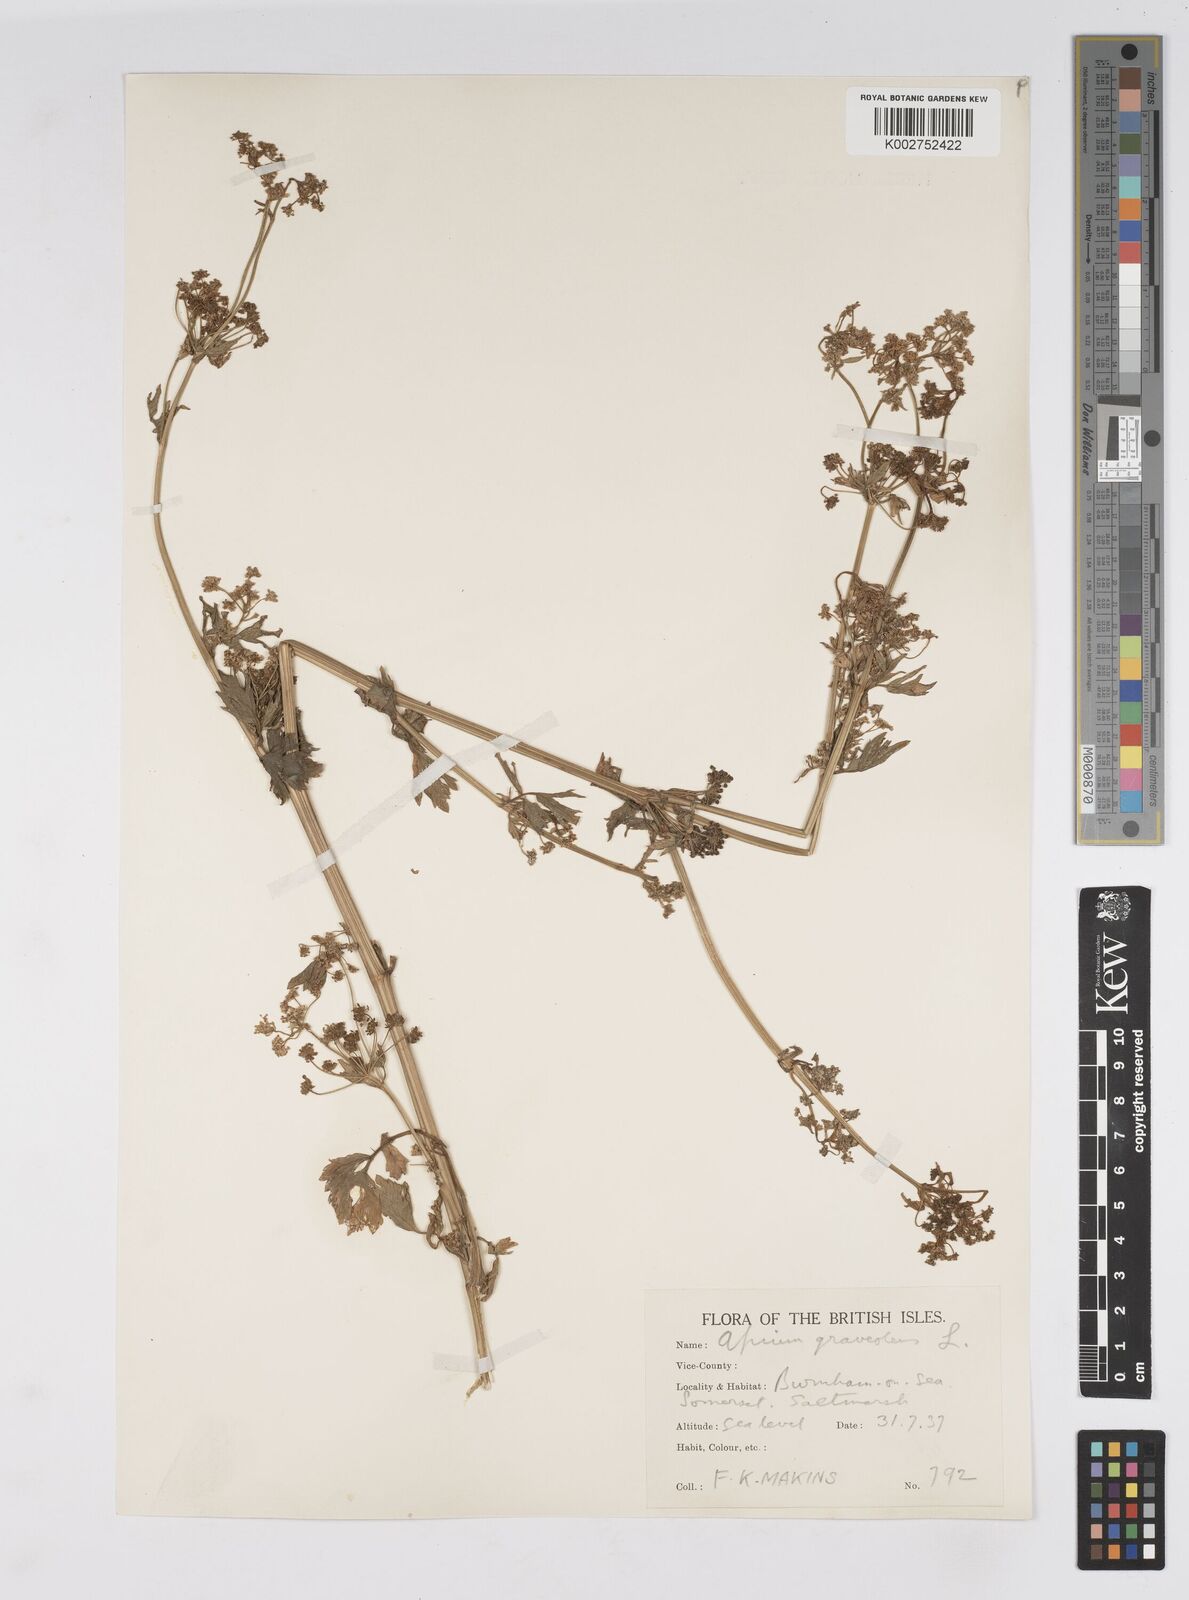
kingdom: Plantae
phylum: Tracheophyta
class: Magnoliopsida
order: Apiales
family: Apiaceae
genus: Apium
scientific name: Apium graveolens
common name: Wild celery
